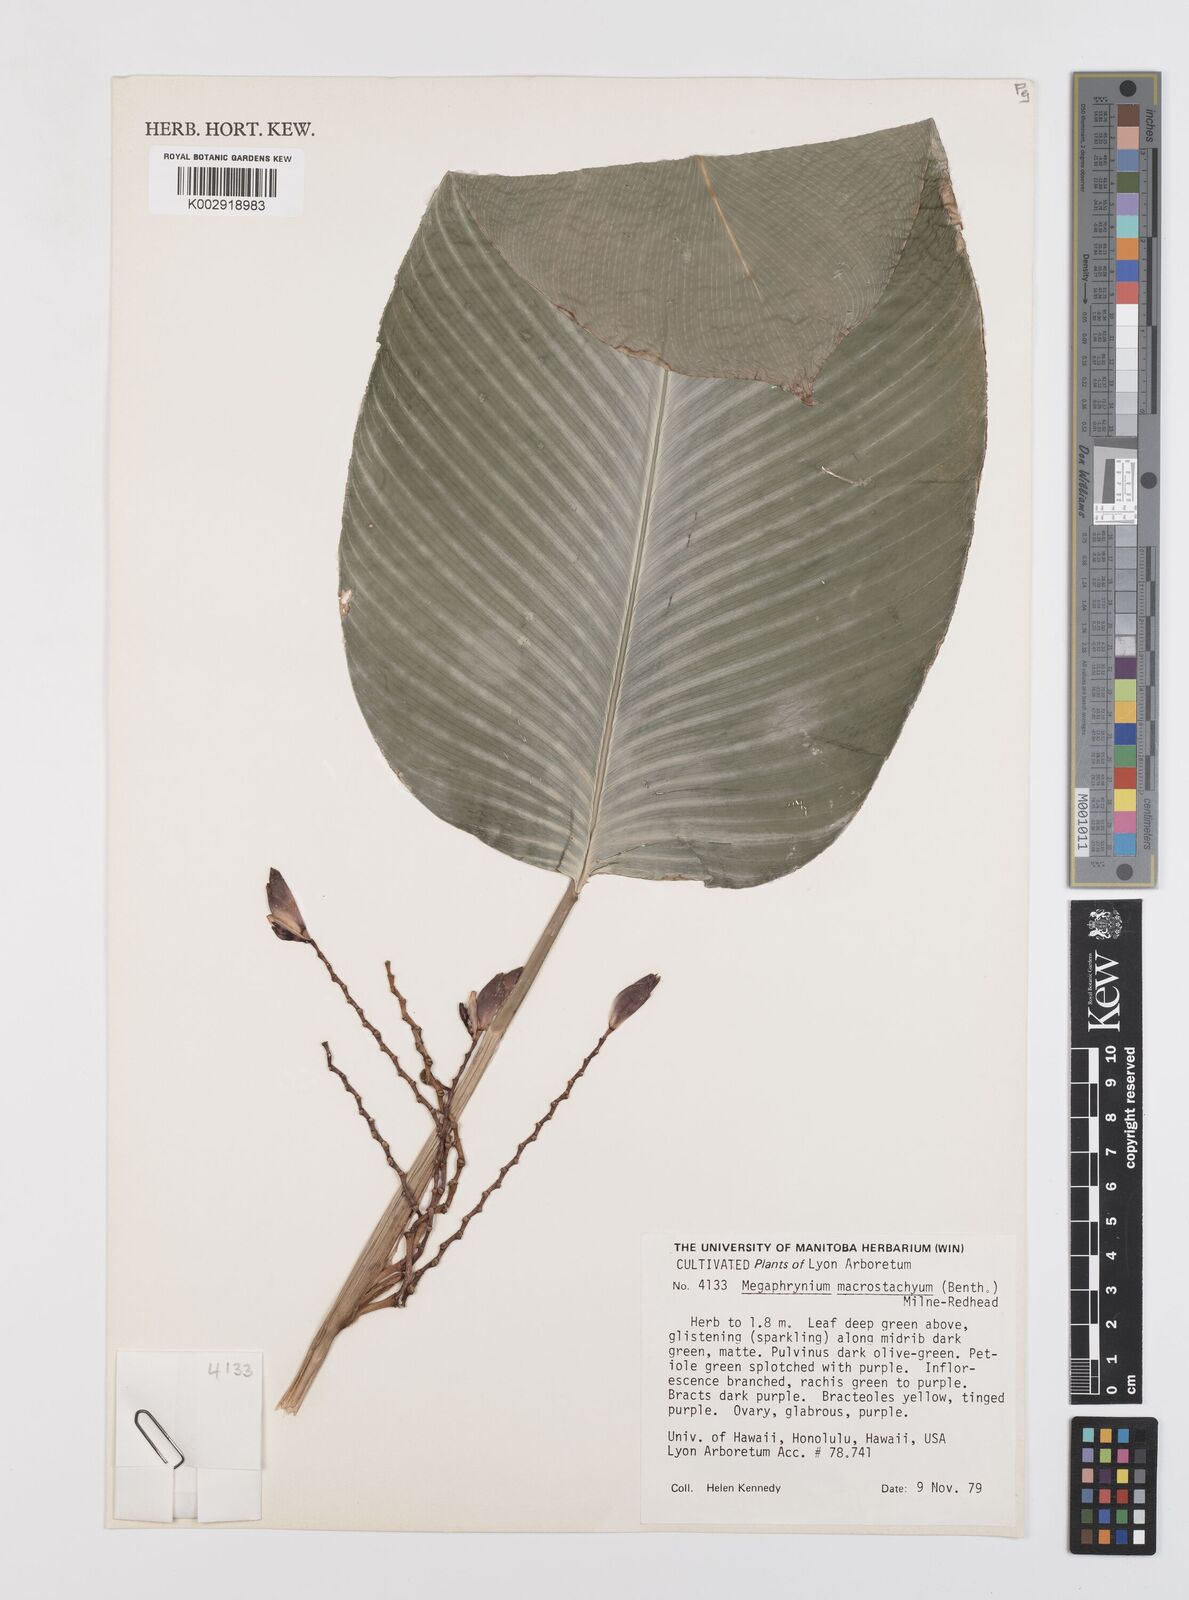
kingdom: Plantae
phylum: Tracheophyta
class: Liliopsida
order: Zingiberales
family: Marantaceae
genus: Megaphrynium
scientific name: Megaphrynium macrostachyum
